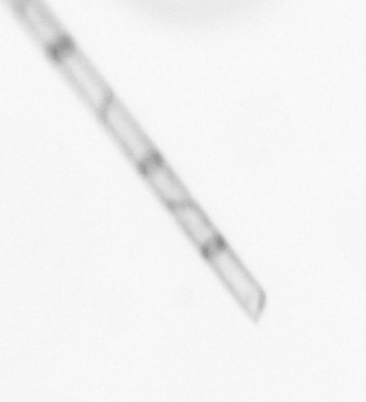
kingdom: Chromista
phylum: Ochrophyta
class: Bacillariophyceae
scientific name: Bacillariophyceae
